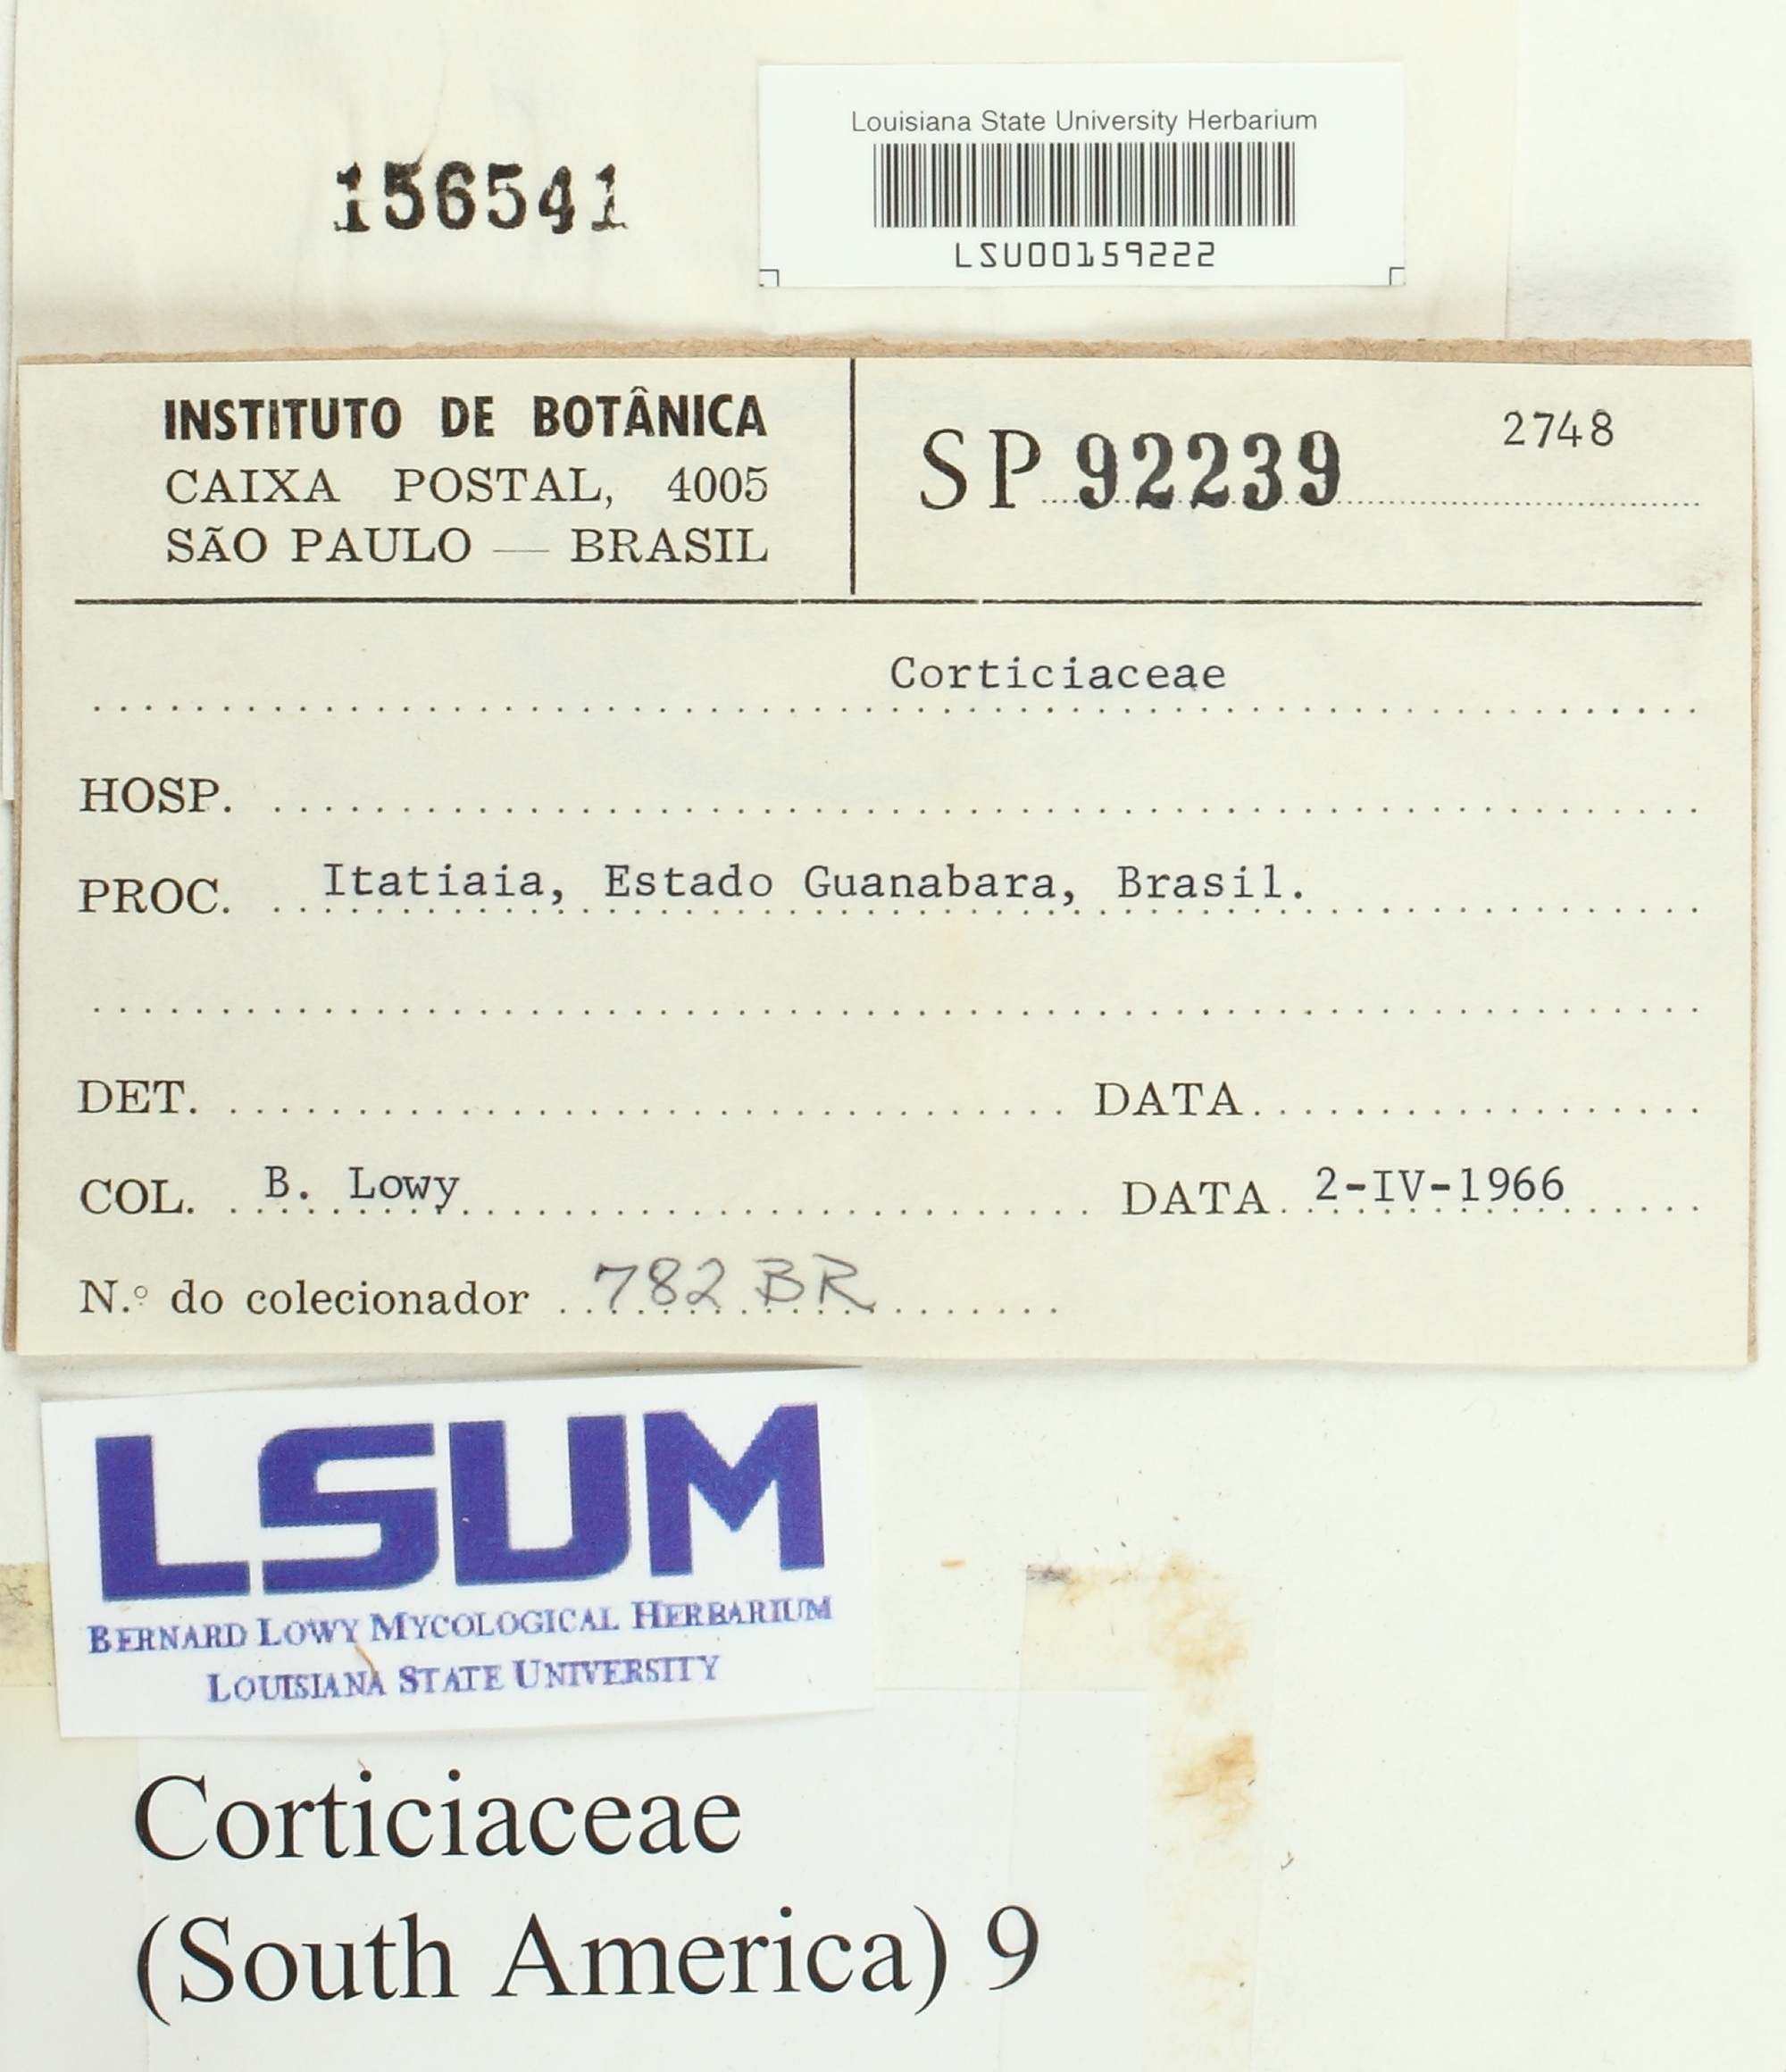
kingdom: Fungi
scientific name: Fungi
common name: Fungi
